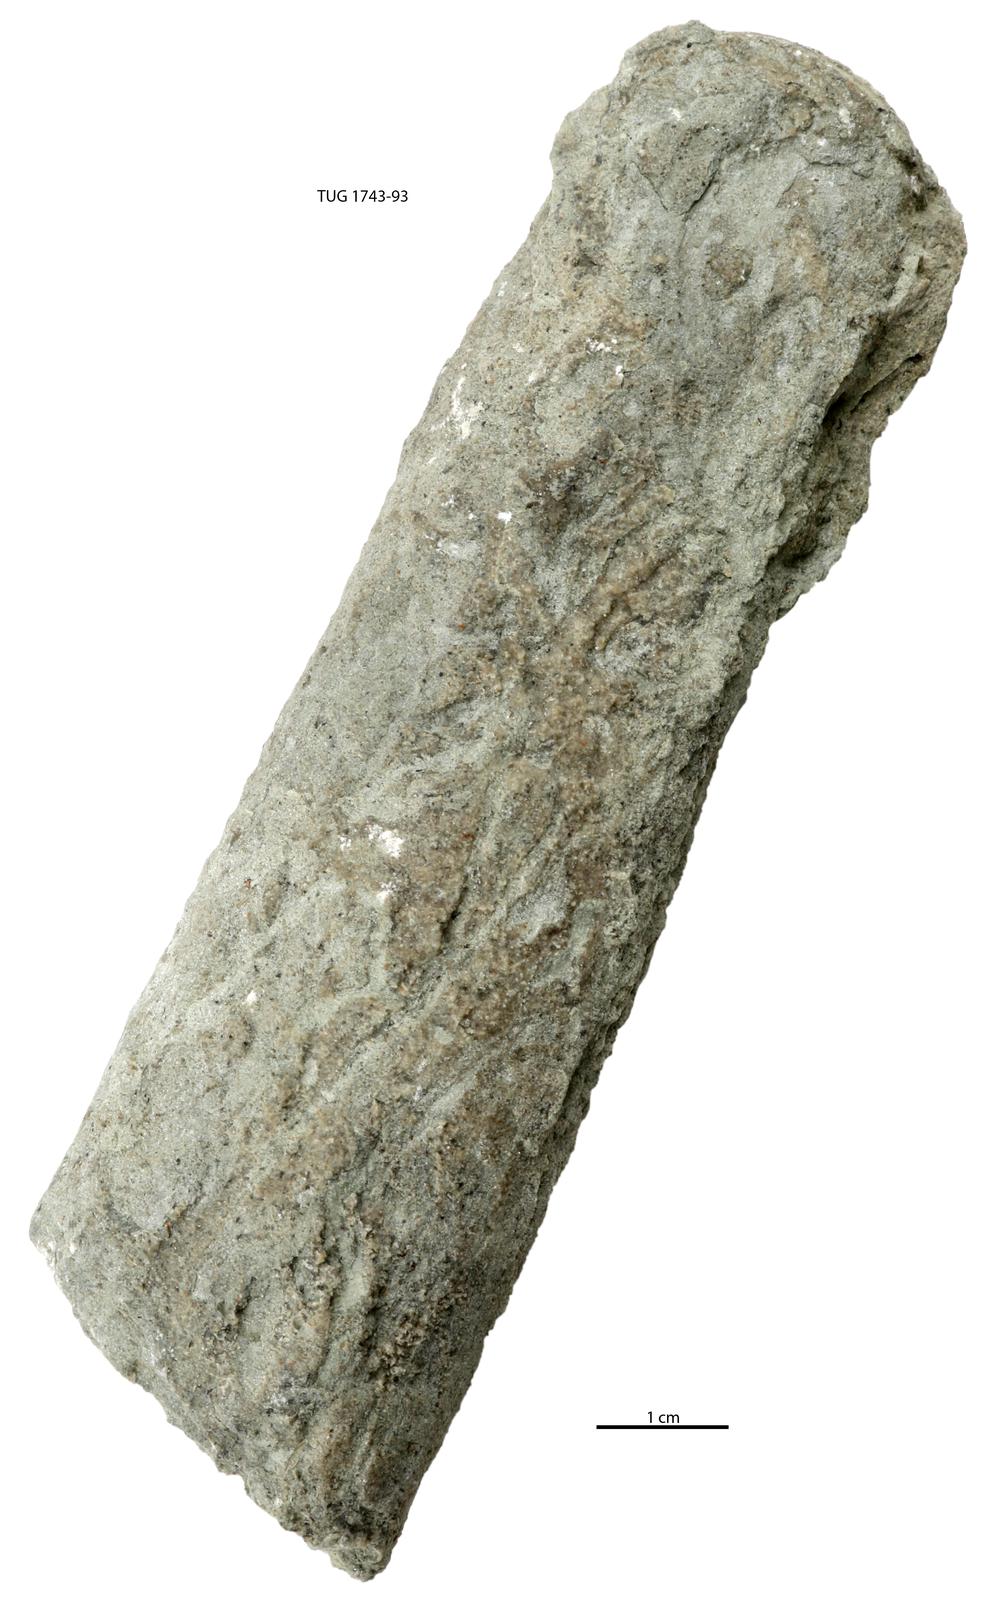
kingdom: Animalia
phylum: Mollusca
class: Cephalopoda
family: Lituitidae
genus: Lituites
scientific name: Lituites
